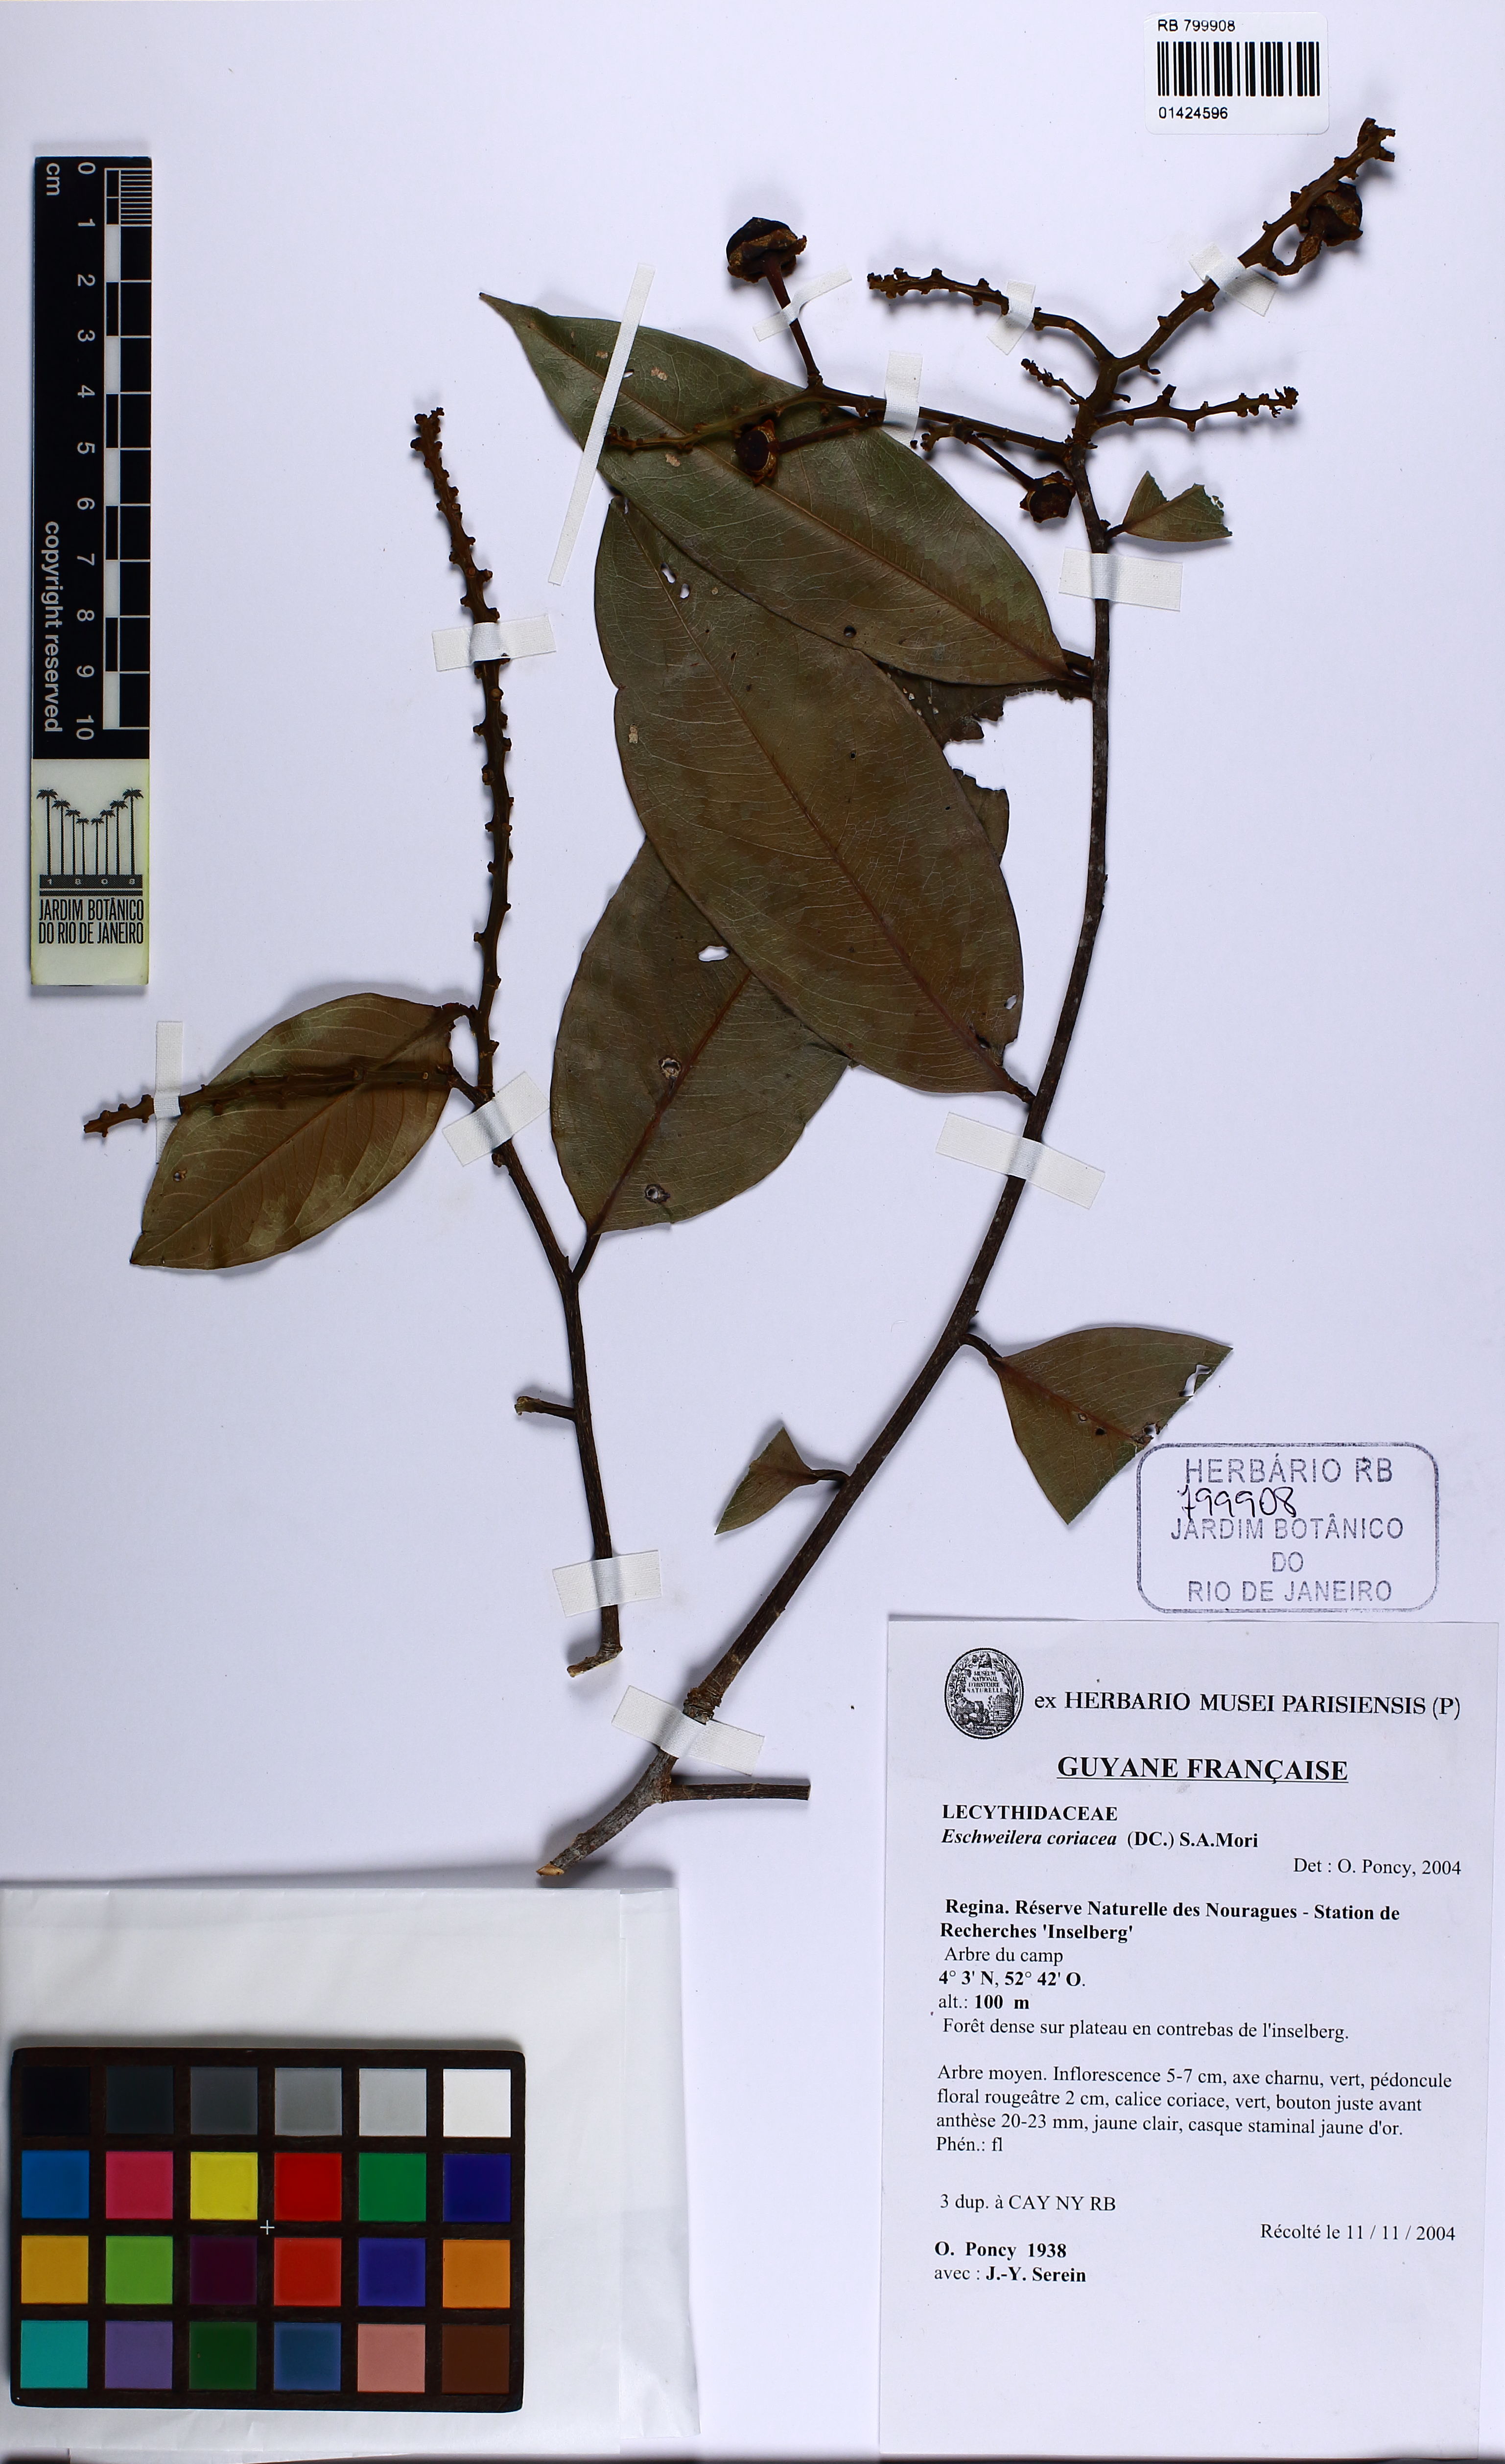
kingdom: Plantae
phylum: Tracheophyta
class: Magnoliopsida
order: Ericales
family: Lecythidaceae
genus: Eschweilera
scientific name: Eschweilera coriacea
